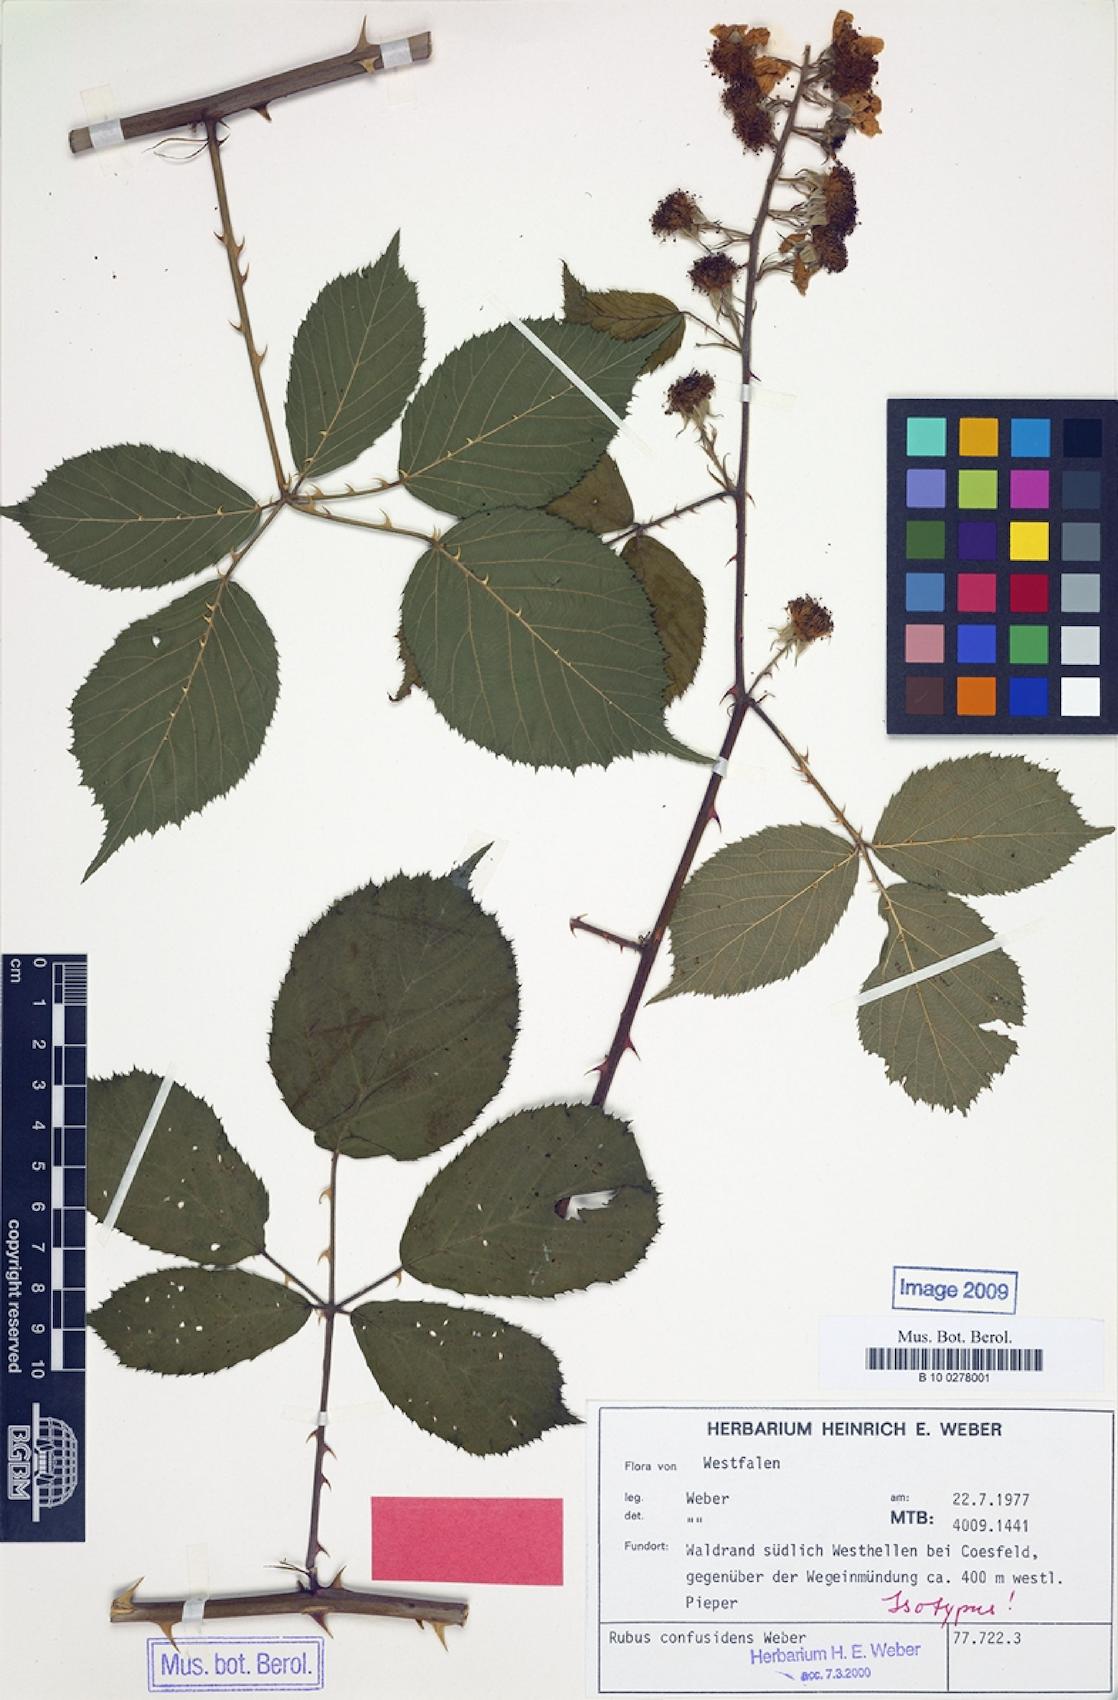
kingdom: Plantae
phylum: Tracheophyta
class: Magnoliopsida
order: Rosales
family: Rosaceae
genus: Rubus
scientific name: Rubus confusidens
